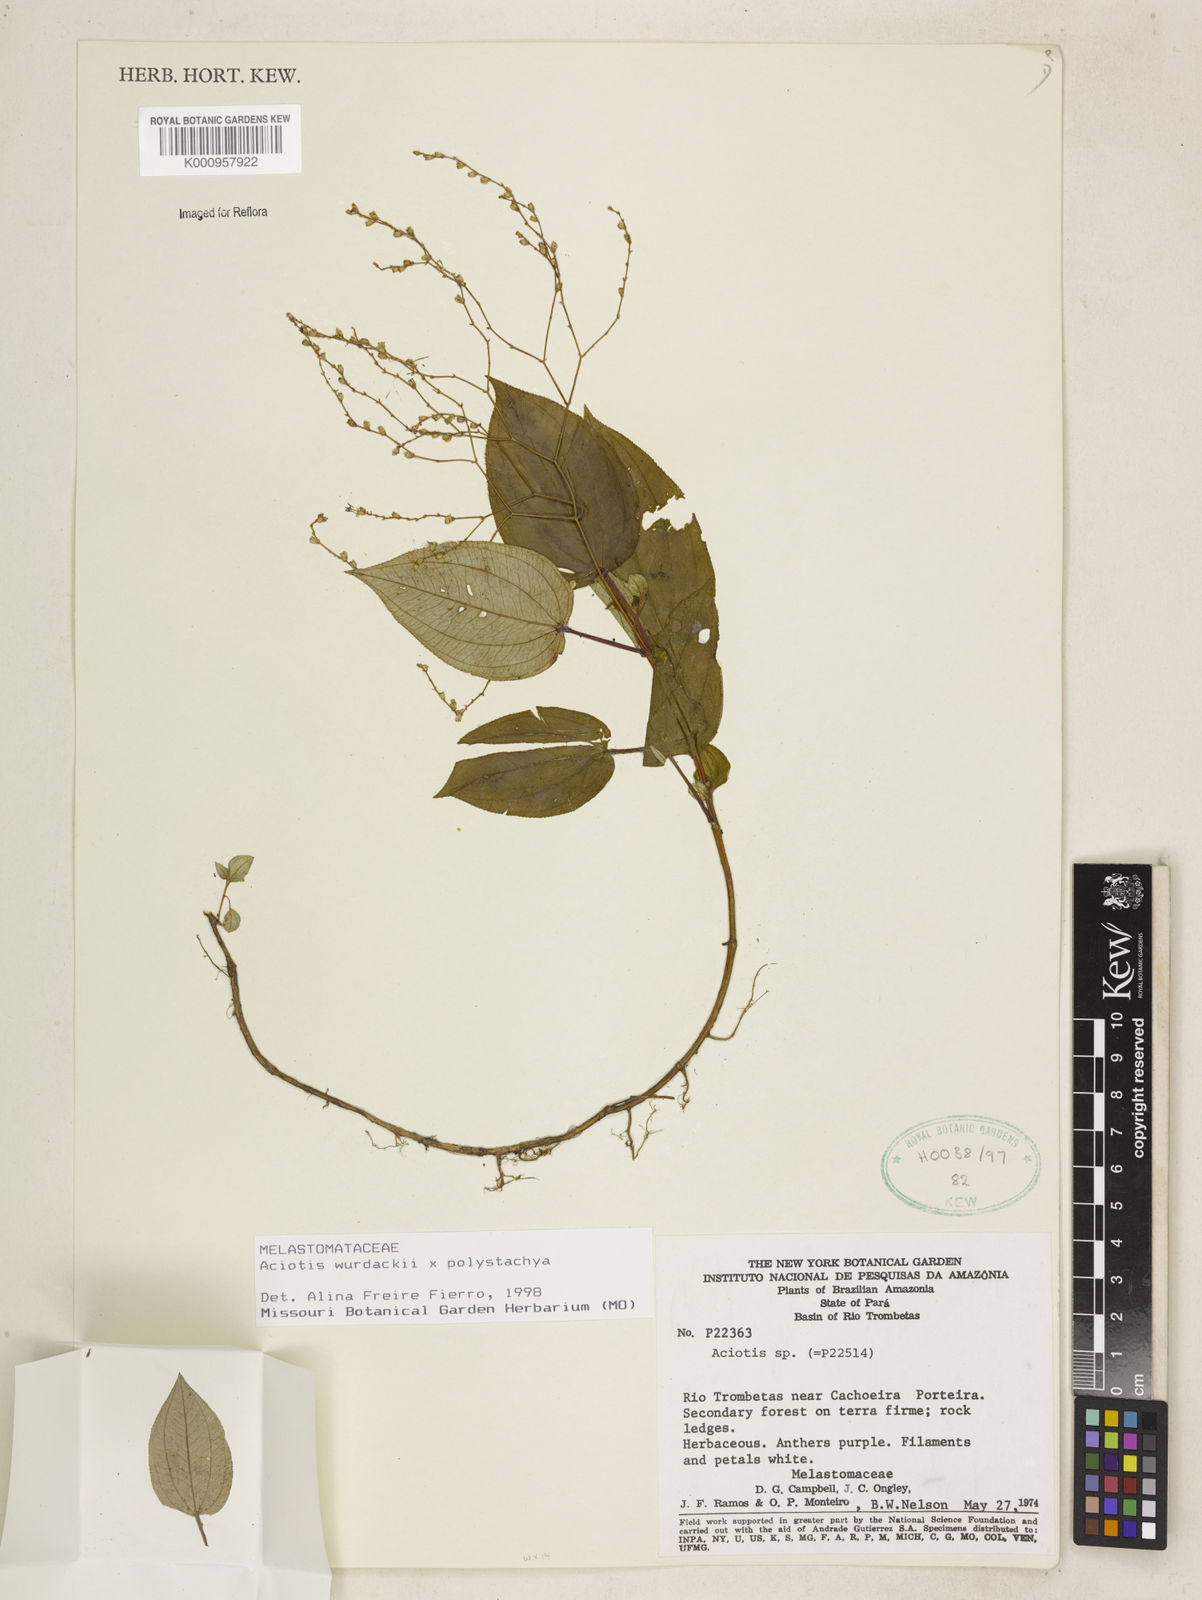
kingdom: Plantae
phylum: Tracheophyta
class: Magnoliopsida
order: Myrtales
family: Melastomataceae
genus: Aciotis
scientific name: Aciotis
